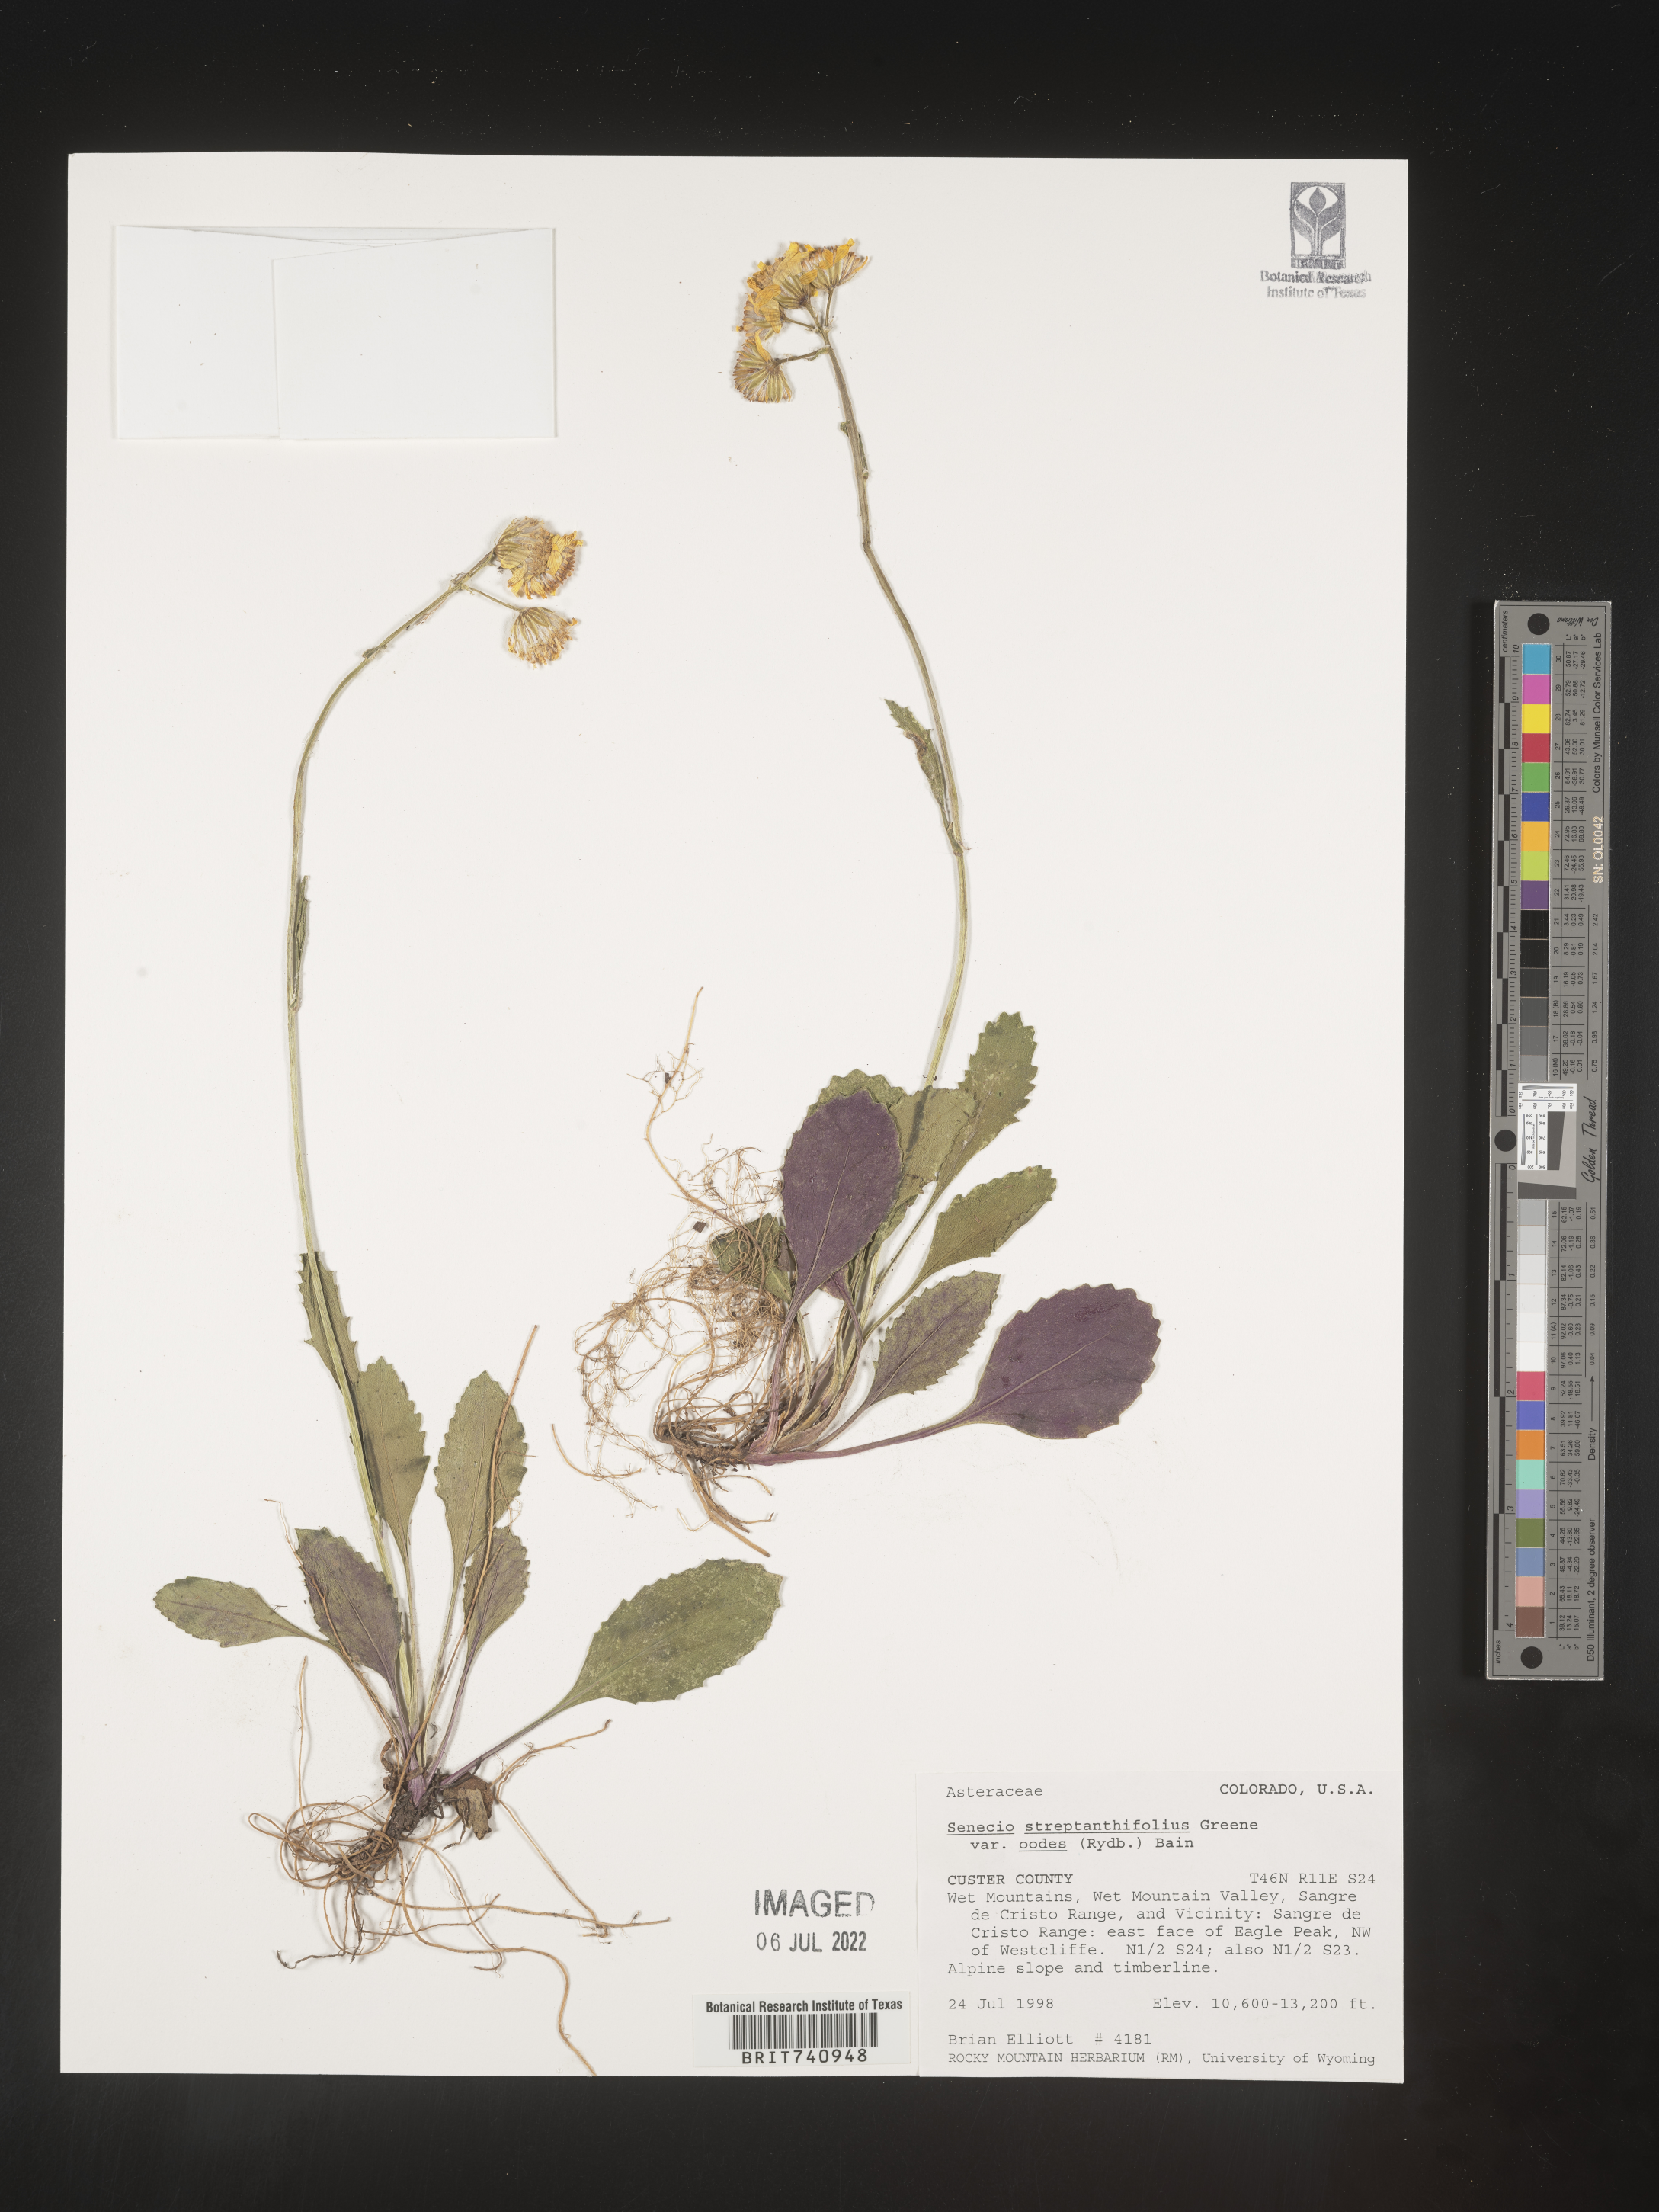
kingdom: Plantae
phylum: Tracheophyta
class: Magnoliopsida
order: Asterales
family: Asteraceae
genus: Packera
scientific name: Packera streptanthifolia
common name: Rocky mountain butterweed
